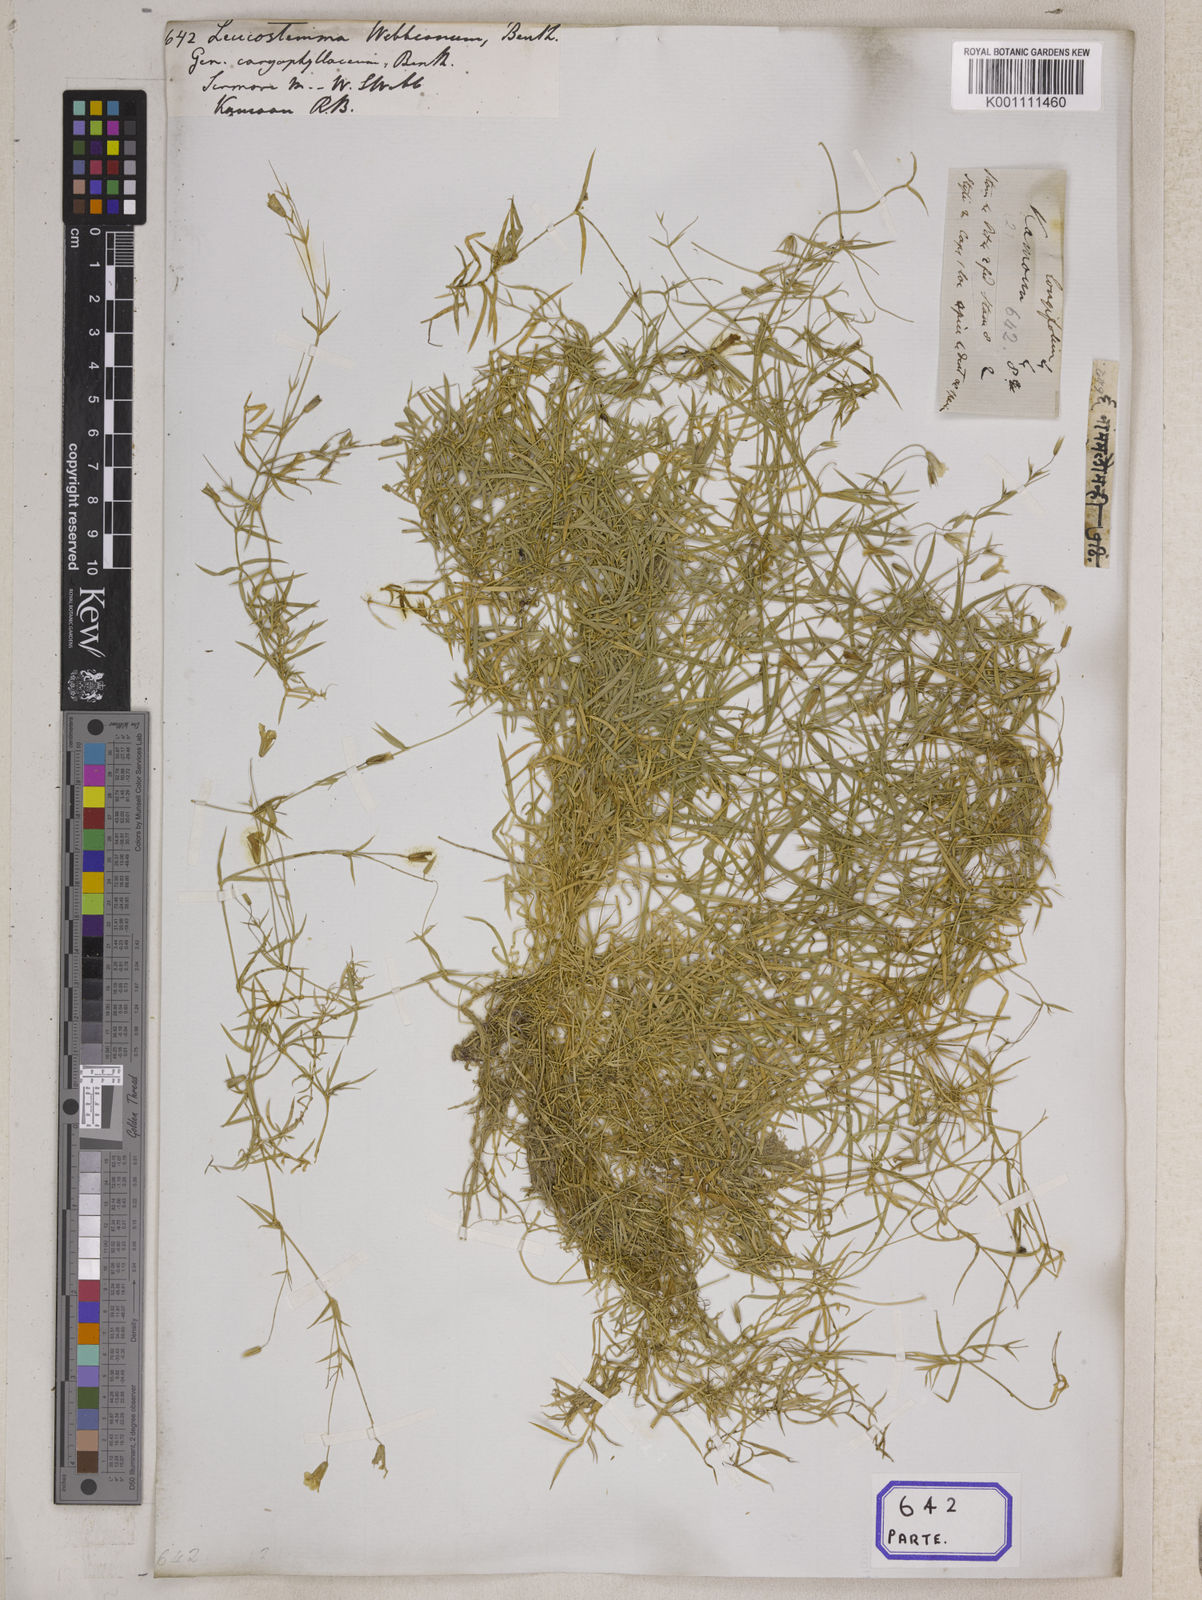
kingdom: Plantae
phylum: Tracheophyta
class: Magnoliopsida
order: Asterales
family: Asteraceae
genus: Syncarpha
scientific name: Syncarpha
